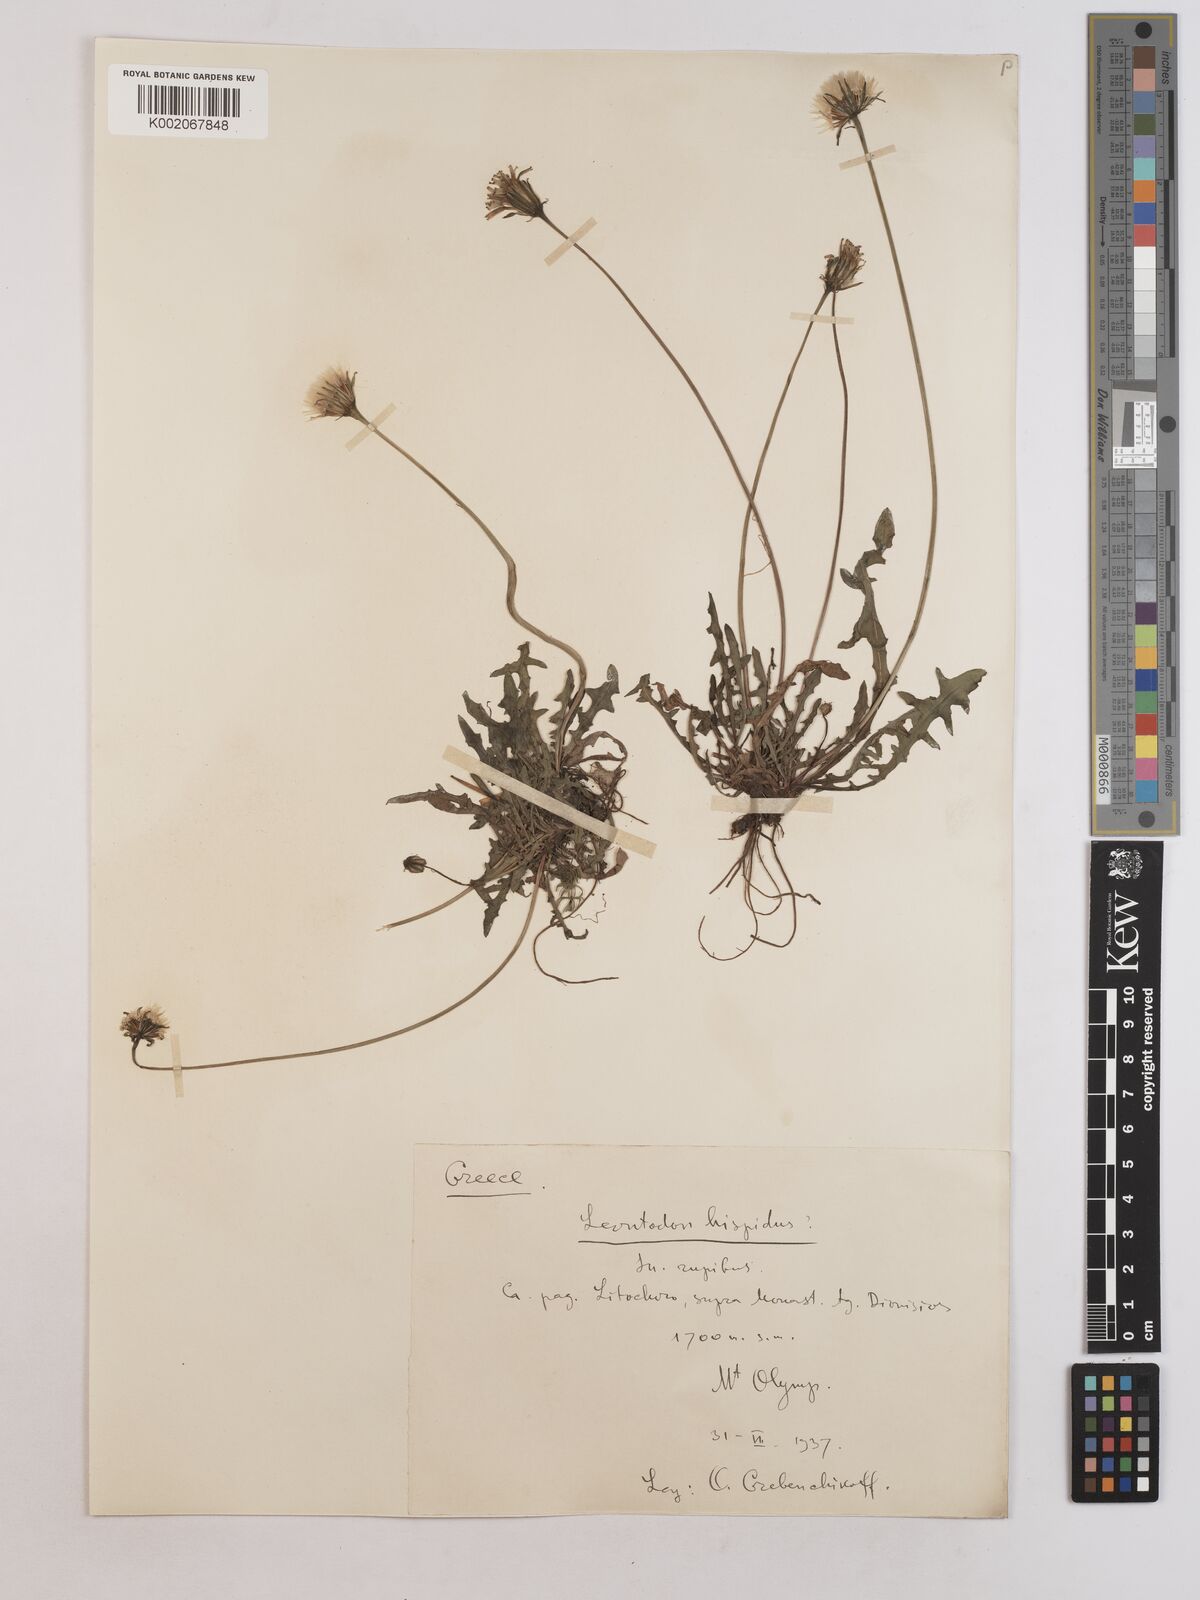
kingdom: Plantae
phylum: Tracheophyta
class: Magnoliopsida
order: Asterales
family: Asteraceae
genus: Leontodon
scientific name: Leontodon hispidus
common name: Rough hawkbit
